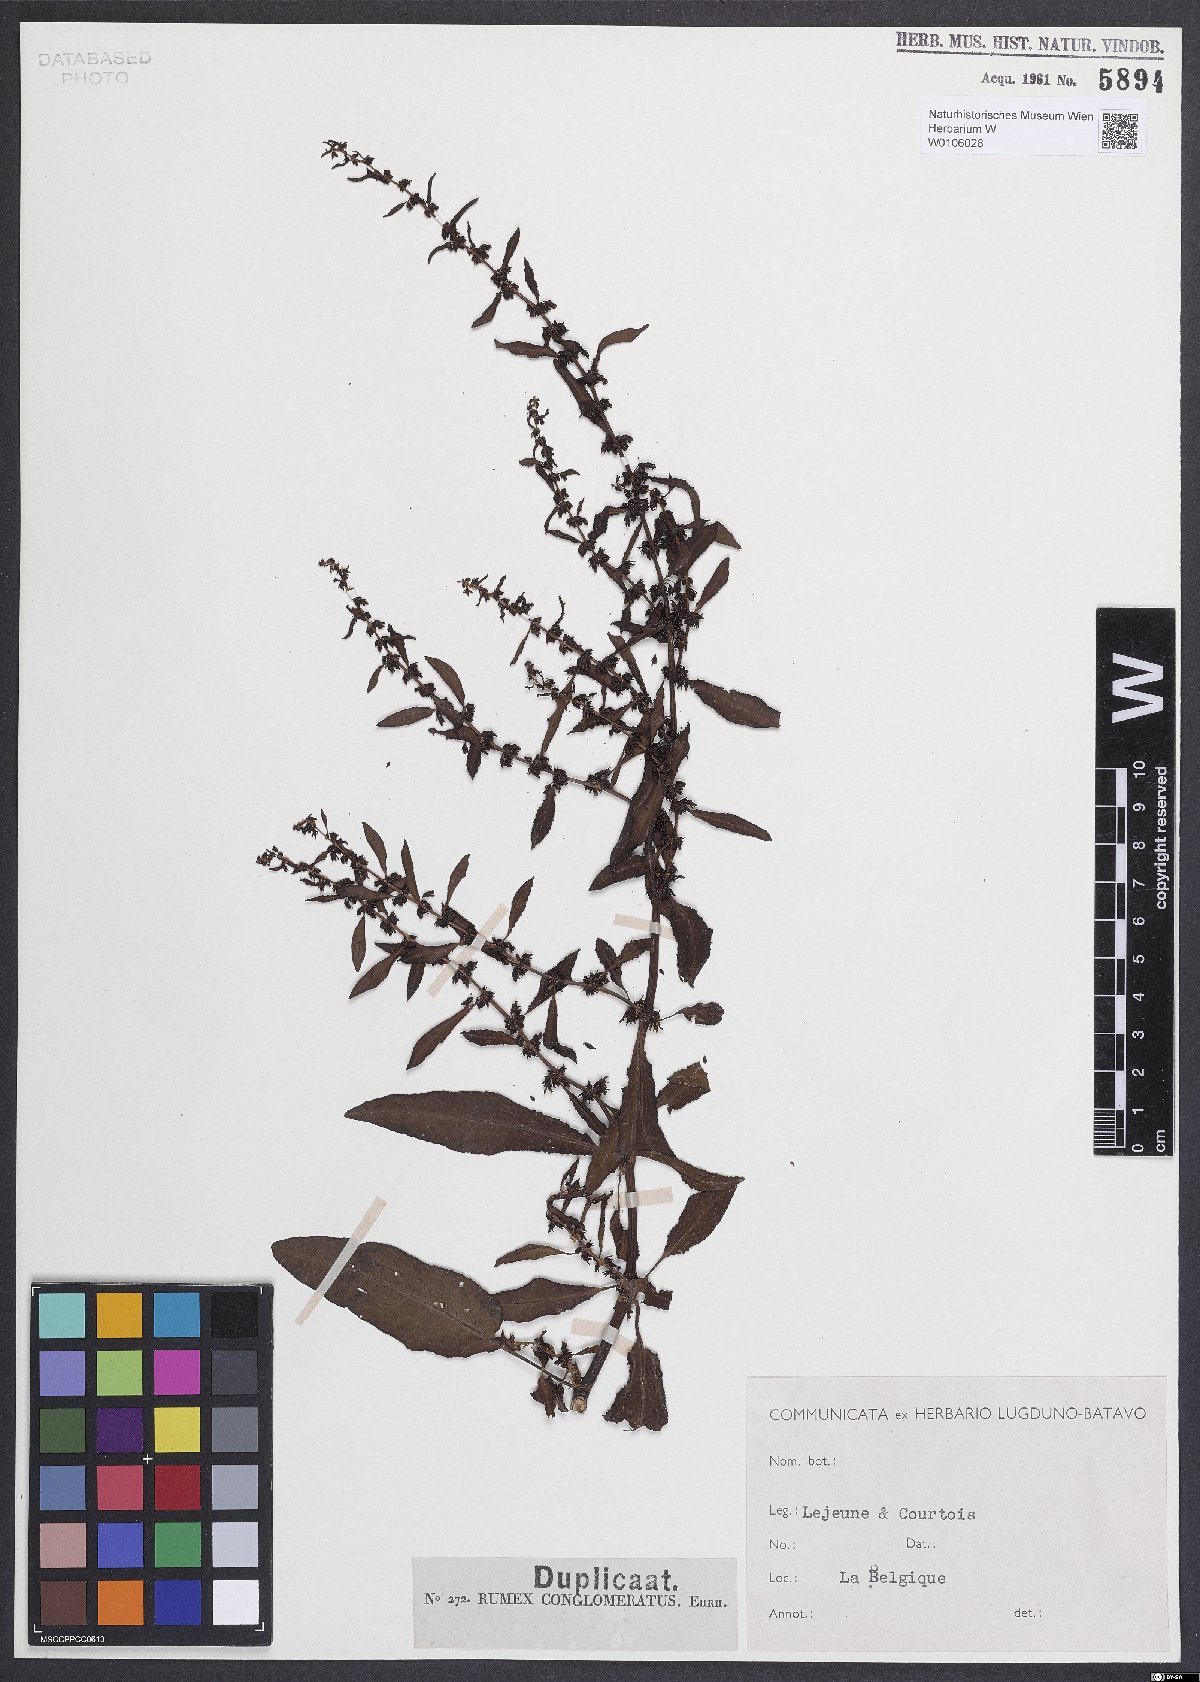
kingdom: Plantae
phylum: Tracheophyta
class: Magnoliopsida
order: Caryophyllales
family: Polygonaceae
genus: Rumex
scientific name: Rumex conglomeratus
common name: Clustered dock
